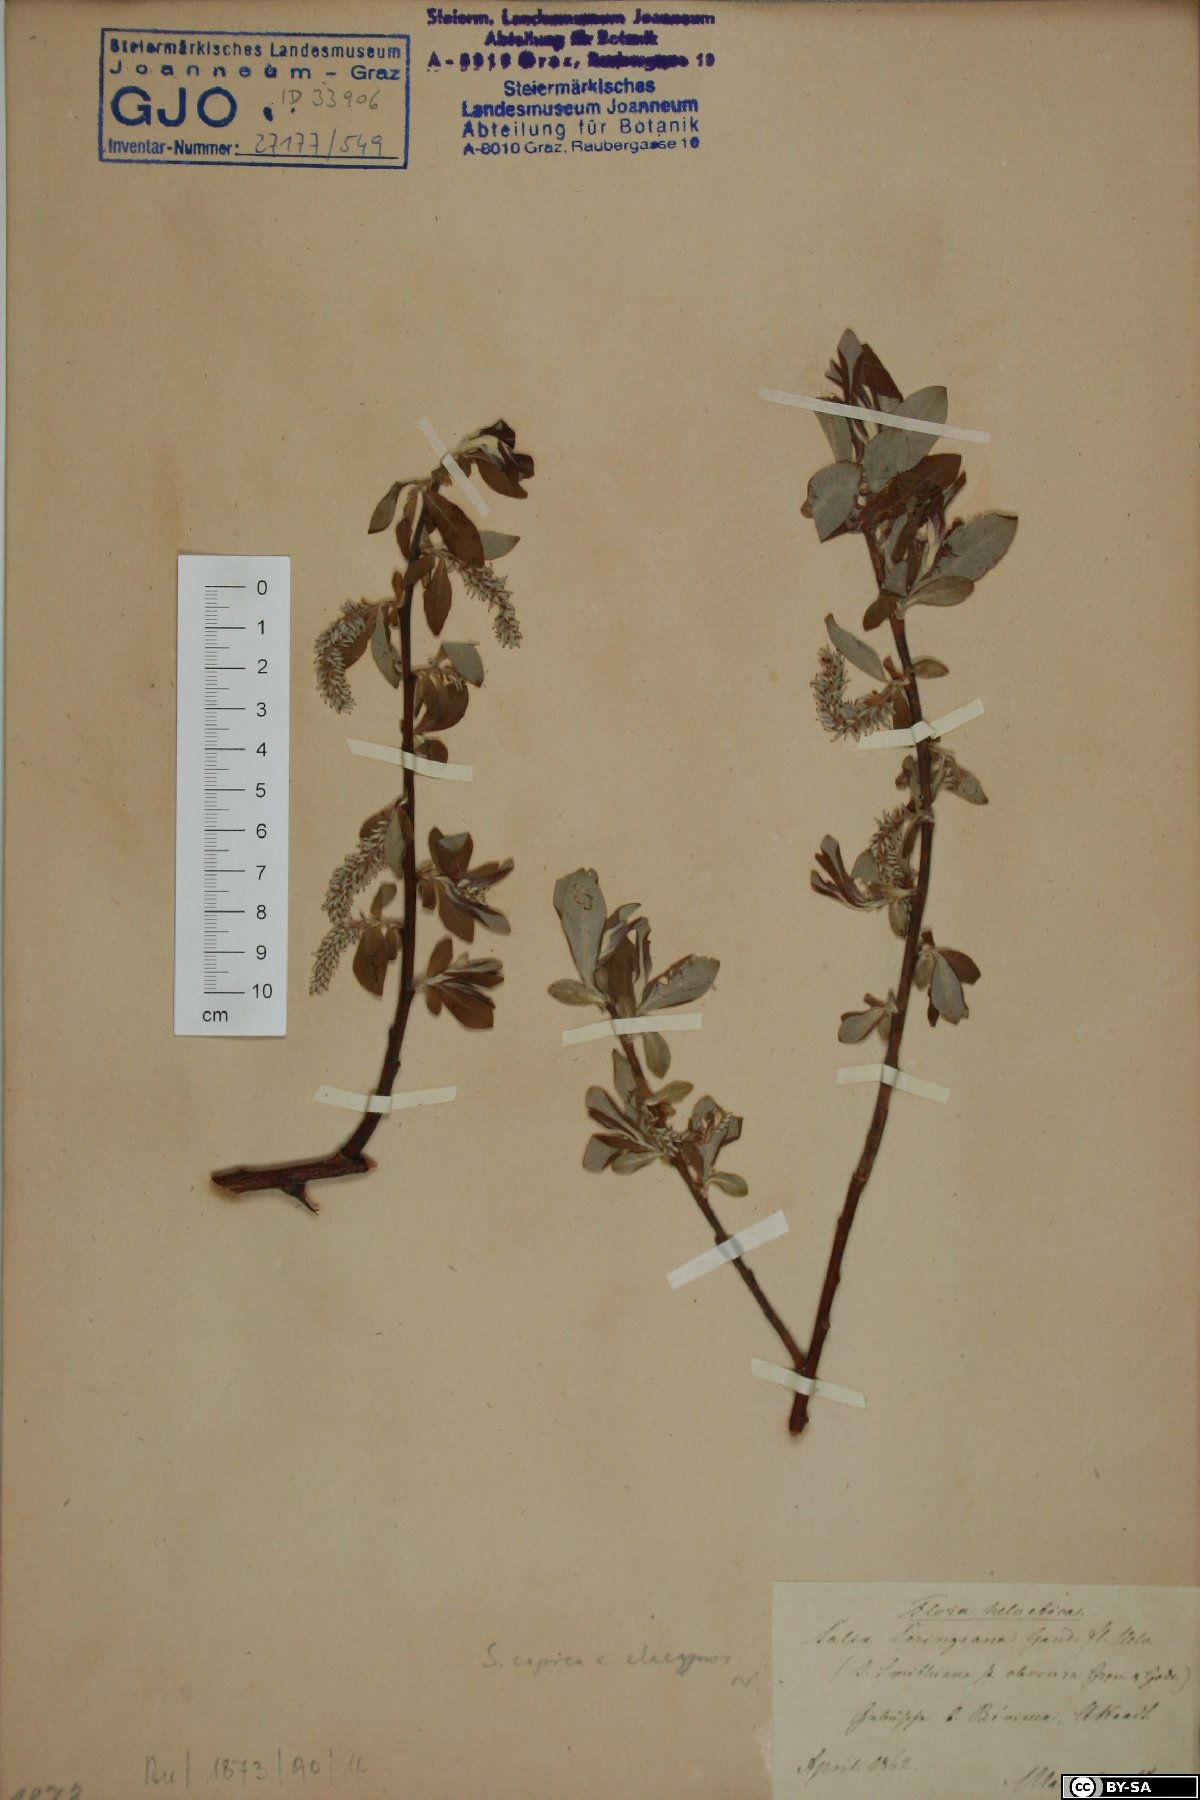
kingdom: Plantae
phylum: Tracheophyta
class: Magnoliopsida
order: Malpighiales
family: Salicaceae
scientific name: Salicaceae
